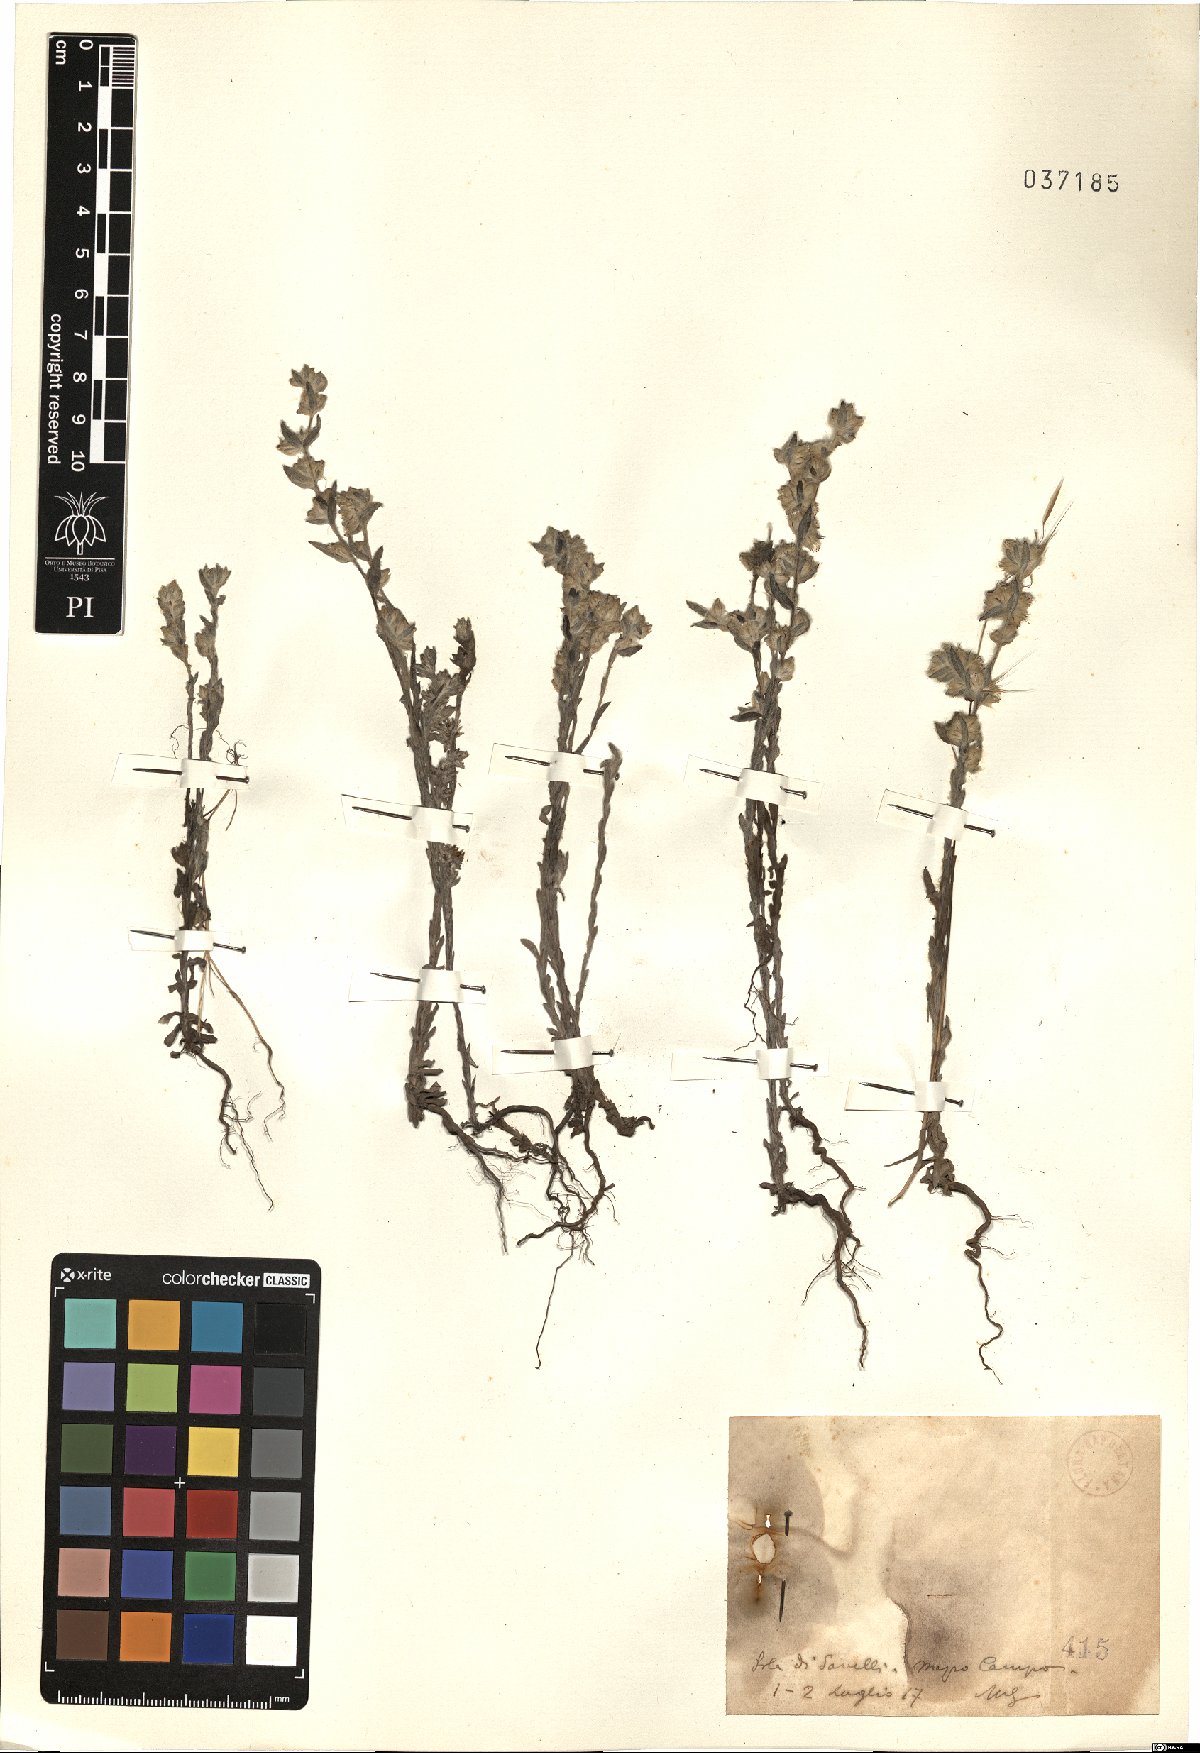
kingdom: Plantae
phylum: Tracheophyta
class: Magnoliopsida
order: Asterales
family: Asteraceae
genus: Filago
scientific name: Filago
